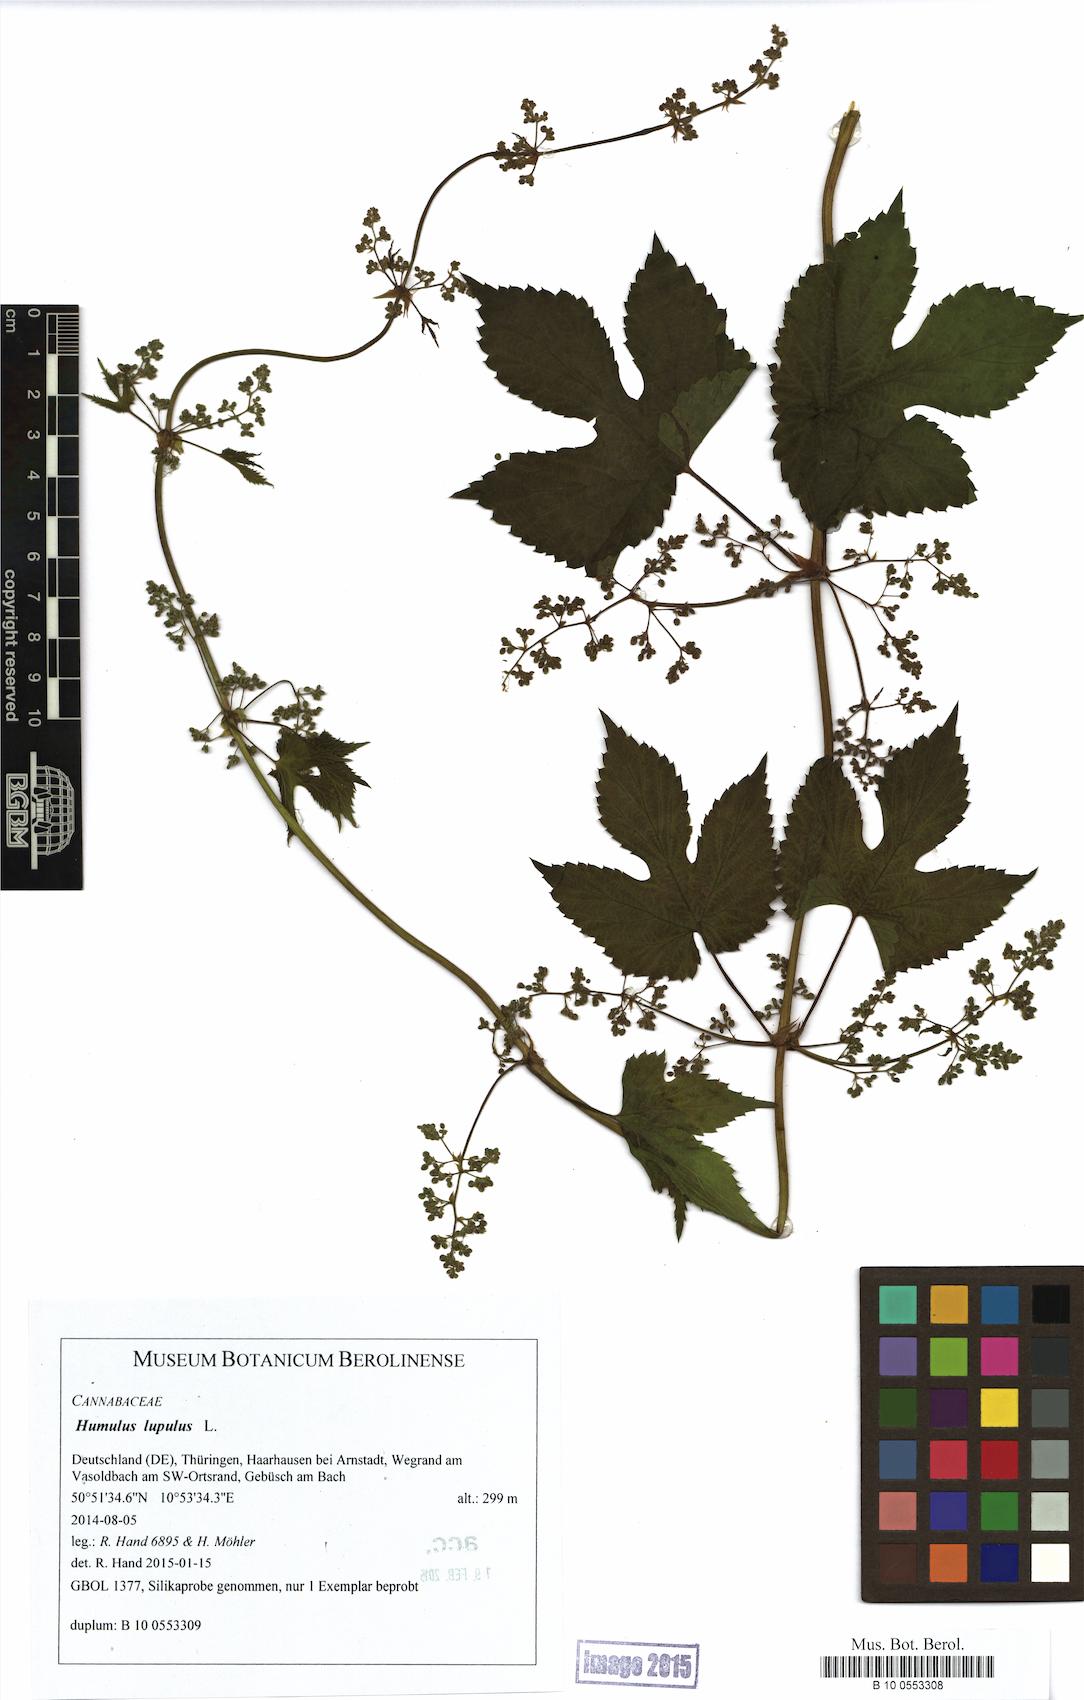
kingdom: Plantae
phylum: Tracheophyta
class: Magnoliopsida
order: Rosales
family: Cannabaceae
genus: Humulus
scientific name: Humulus lupulus
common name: Hop
